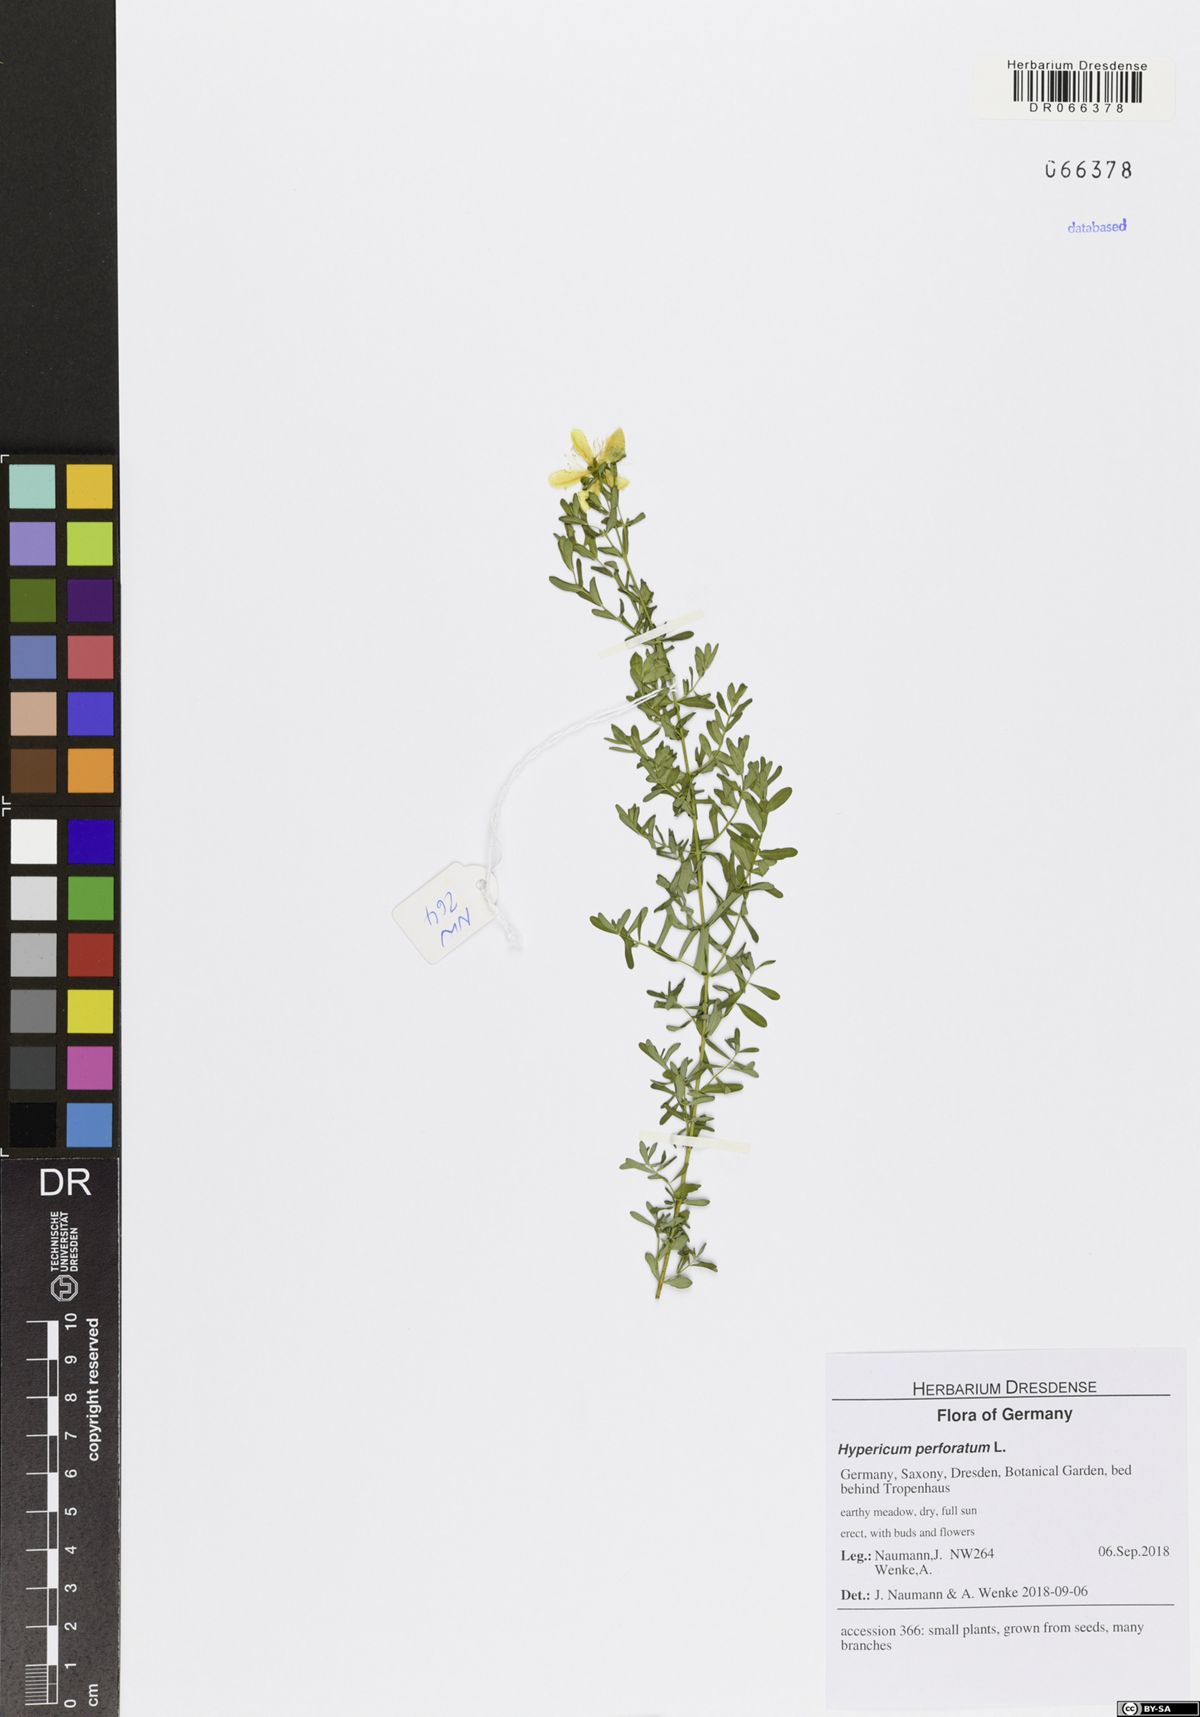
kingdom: Plantae
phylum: Tracheophyta
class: Magnoliopsida
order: Malpighiales
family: Hypericaceae
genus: Hypericum
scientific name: Hypericum perforatum
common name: Common st. johnswort
